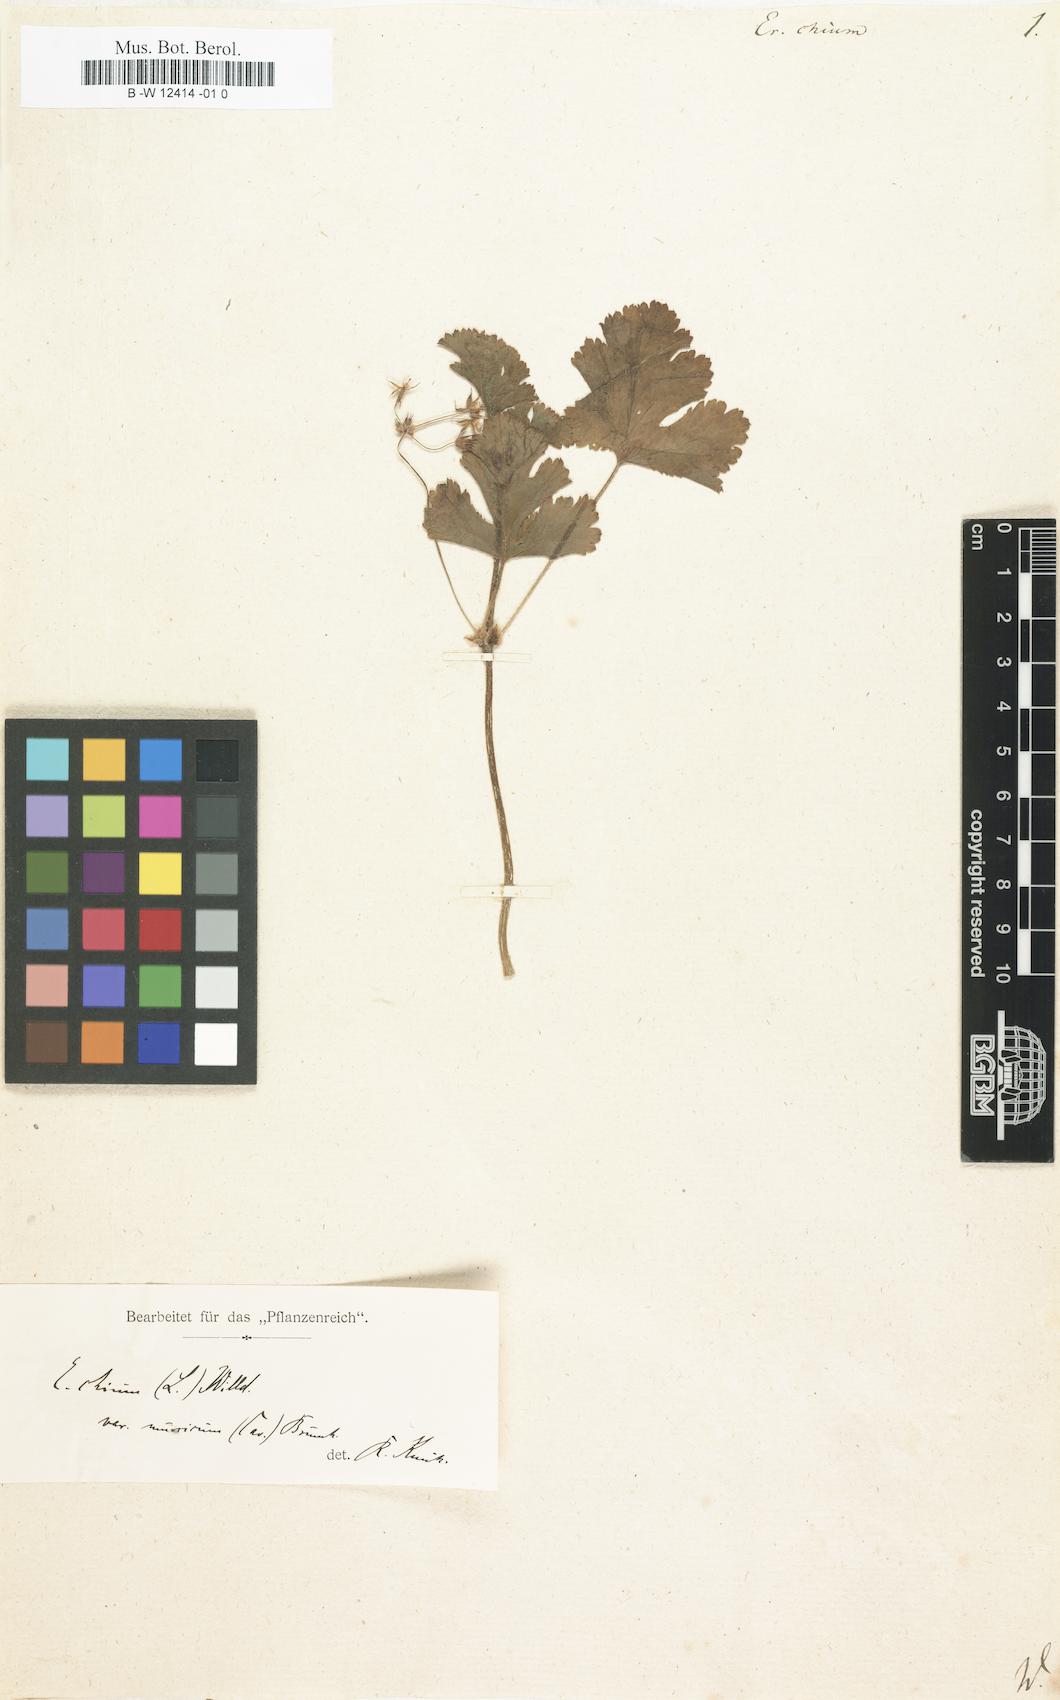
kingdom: Plantae
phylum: Tracheophyta
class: Magnoliopsida
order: Geraniales
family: Geraniaceae
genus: Erodium
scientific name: Erodium chium
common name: Three-lobed stork's-bill
